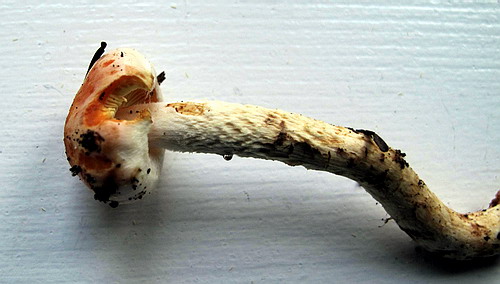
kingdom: Fungi
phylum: Basidiomycota
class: Agaricomycetes
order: Agaricales
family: Strophariaceae
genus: Pyrrhulomyces
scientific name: Pyrrhulomyces astragalinus
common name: safran-skælhat
